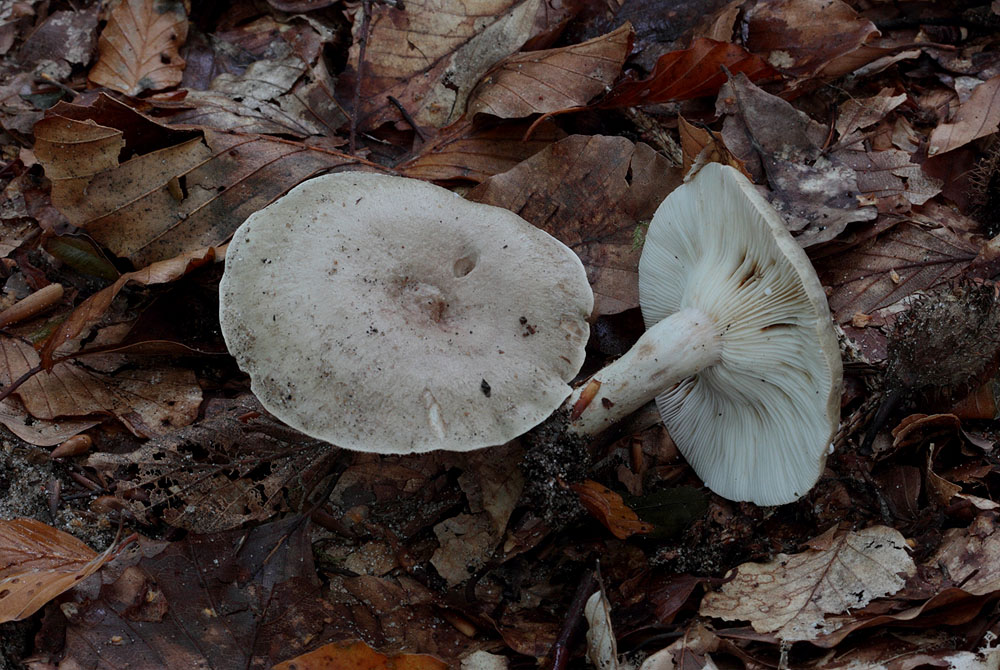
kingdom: Fungi
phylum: Basidiomycota
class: Agaricomycetes
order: Russulales
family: Russulaceae
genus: Lactarius
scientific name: Lactarius blennius
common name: dråbeplettet mælkehat
